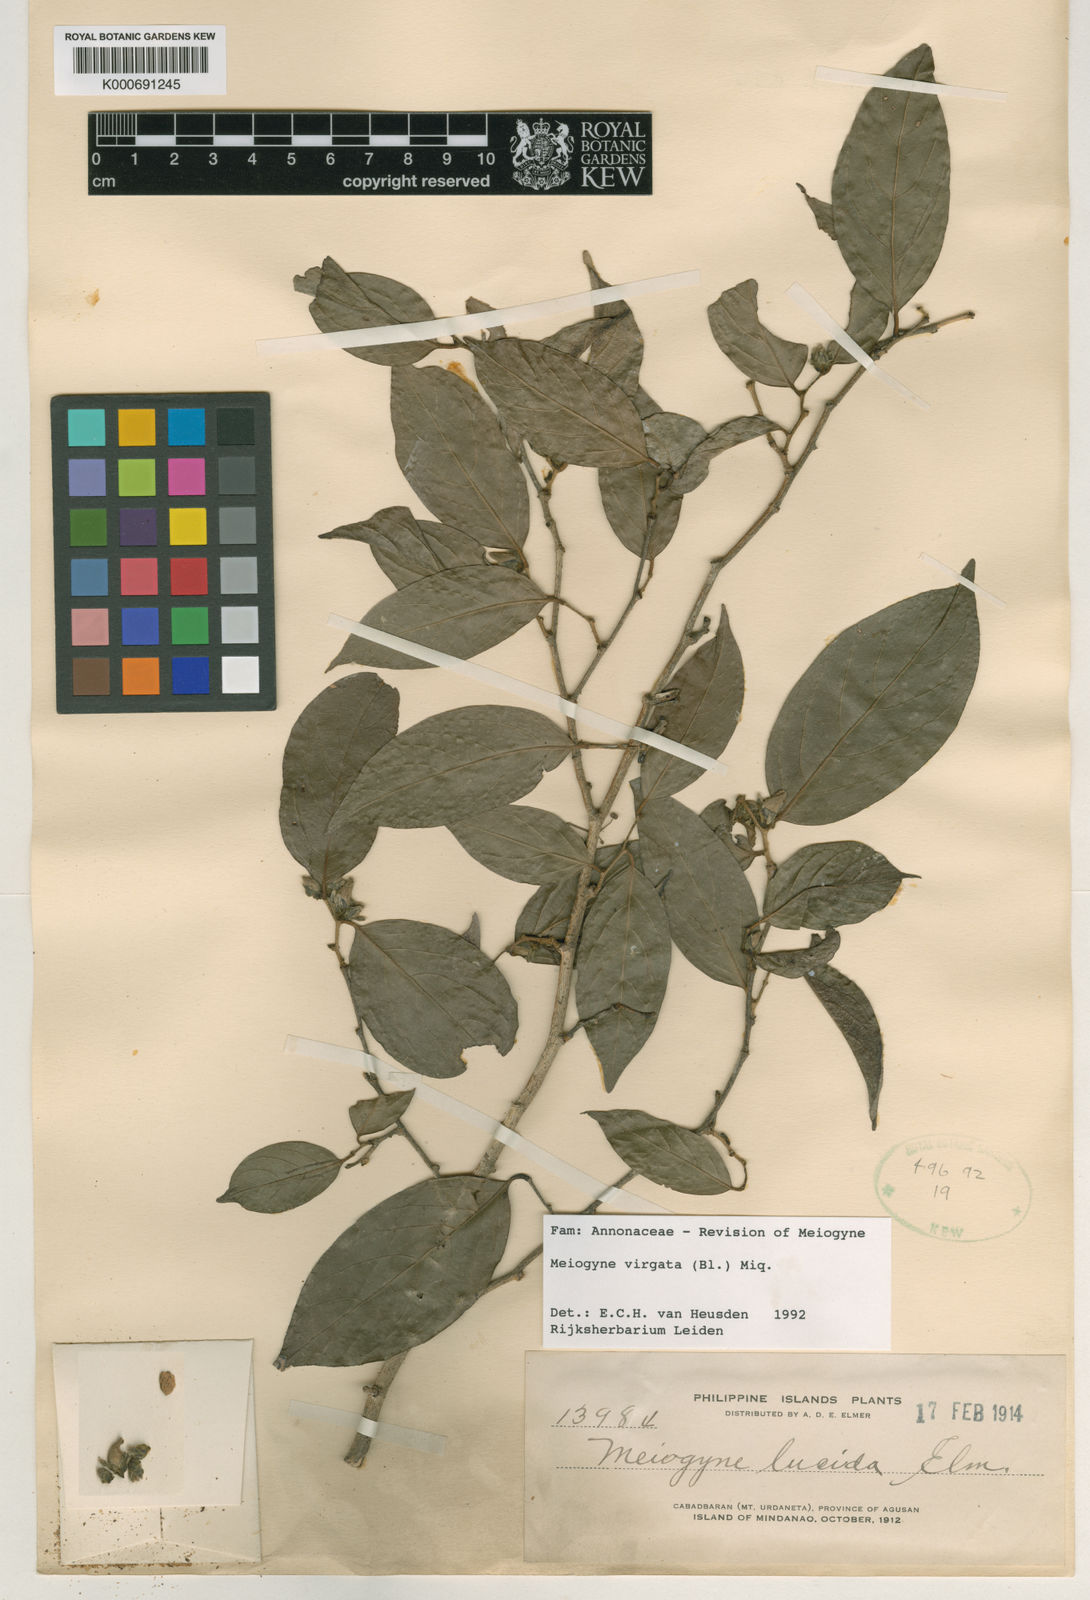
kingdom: Plantae
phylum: Tracheophyta
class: Magnoliopsida
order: Magnoliales
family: Annonaceae
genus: Meiogyne
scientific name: Meiogyne virgata
